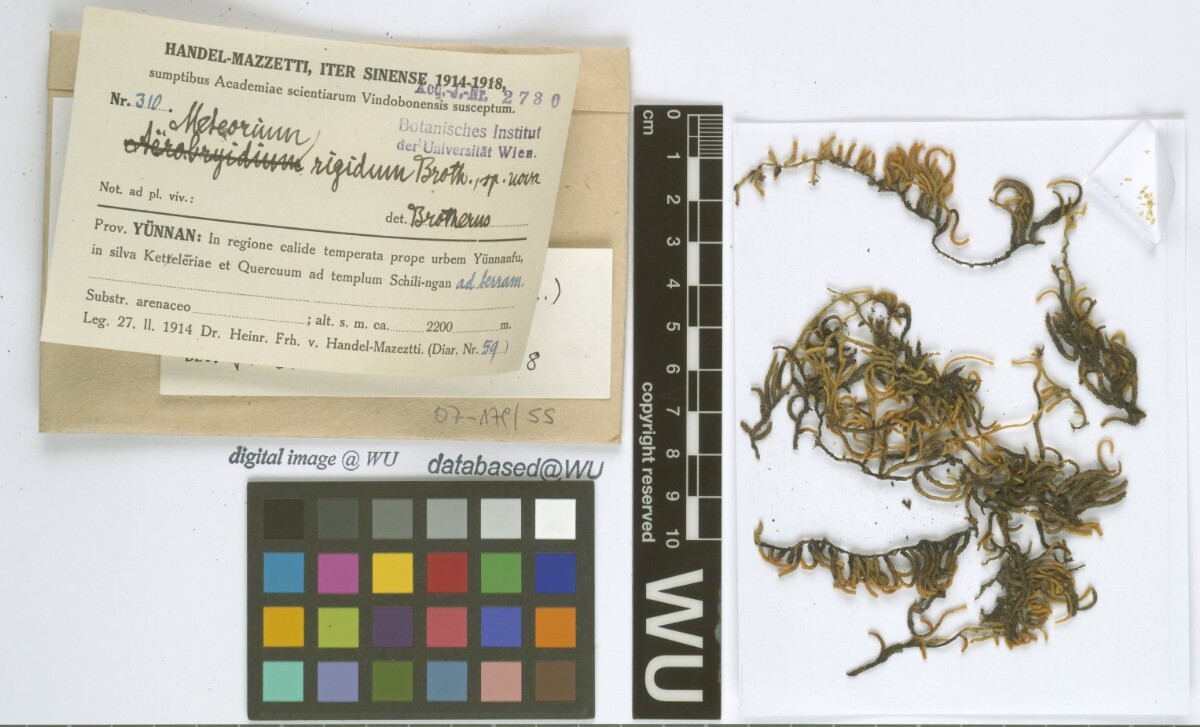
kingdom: Plantae
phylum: Bryophyta
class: Bryopsida
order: Hypnales
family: Meteoriaceae
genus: Meteorium
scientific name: Meteorium buchananii
